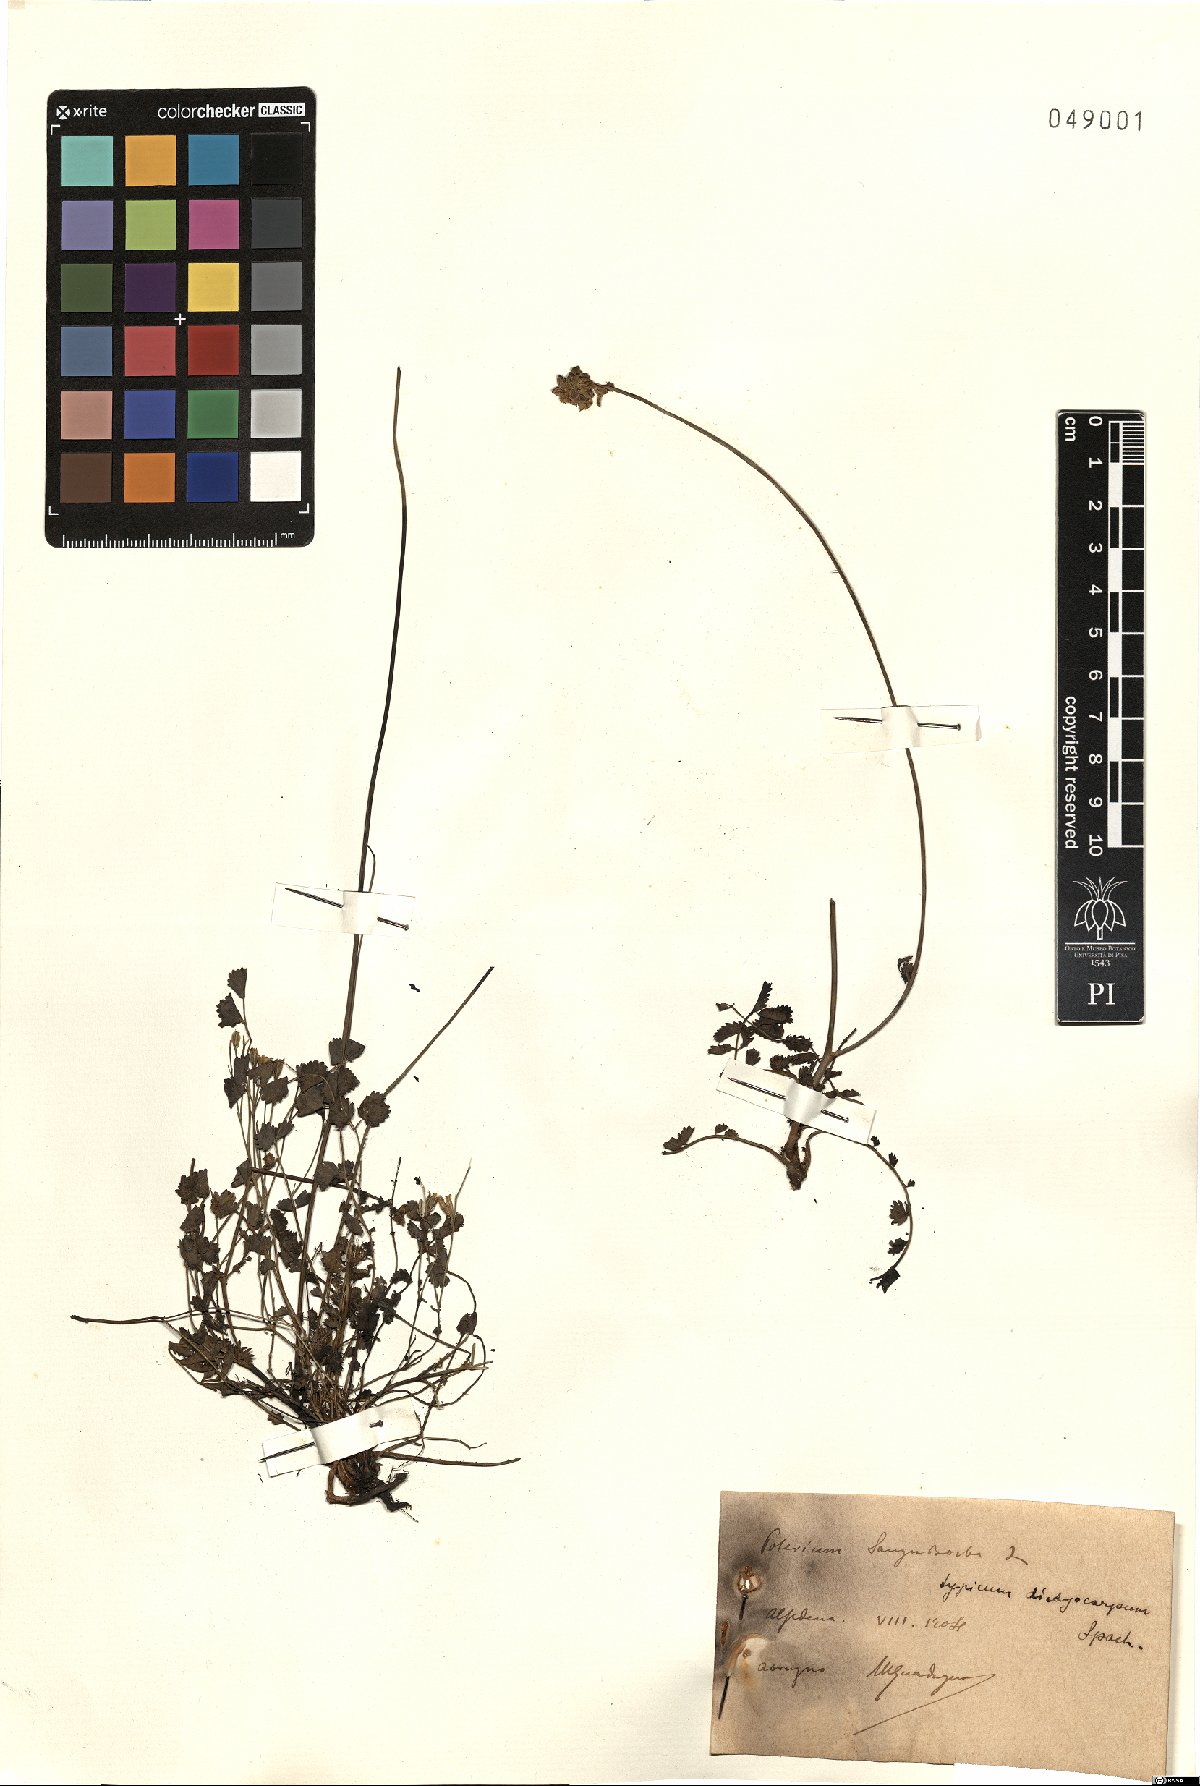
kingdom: Plantae
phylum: Tracheophyta
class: Magnoliopsida
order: Rosales
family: Rosaceae
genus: Poterium
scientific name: Poterium sanguisorba
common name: Salad burnet
